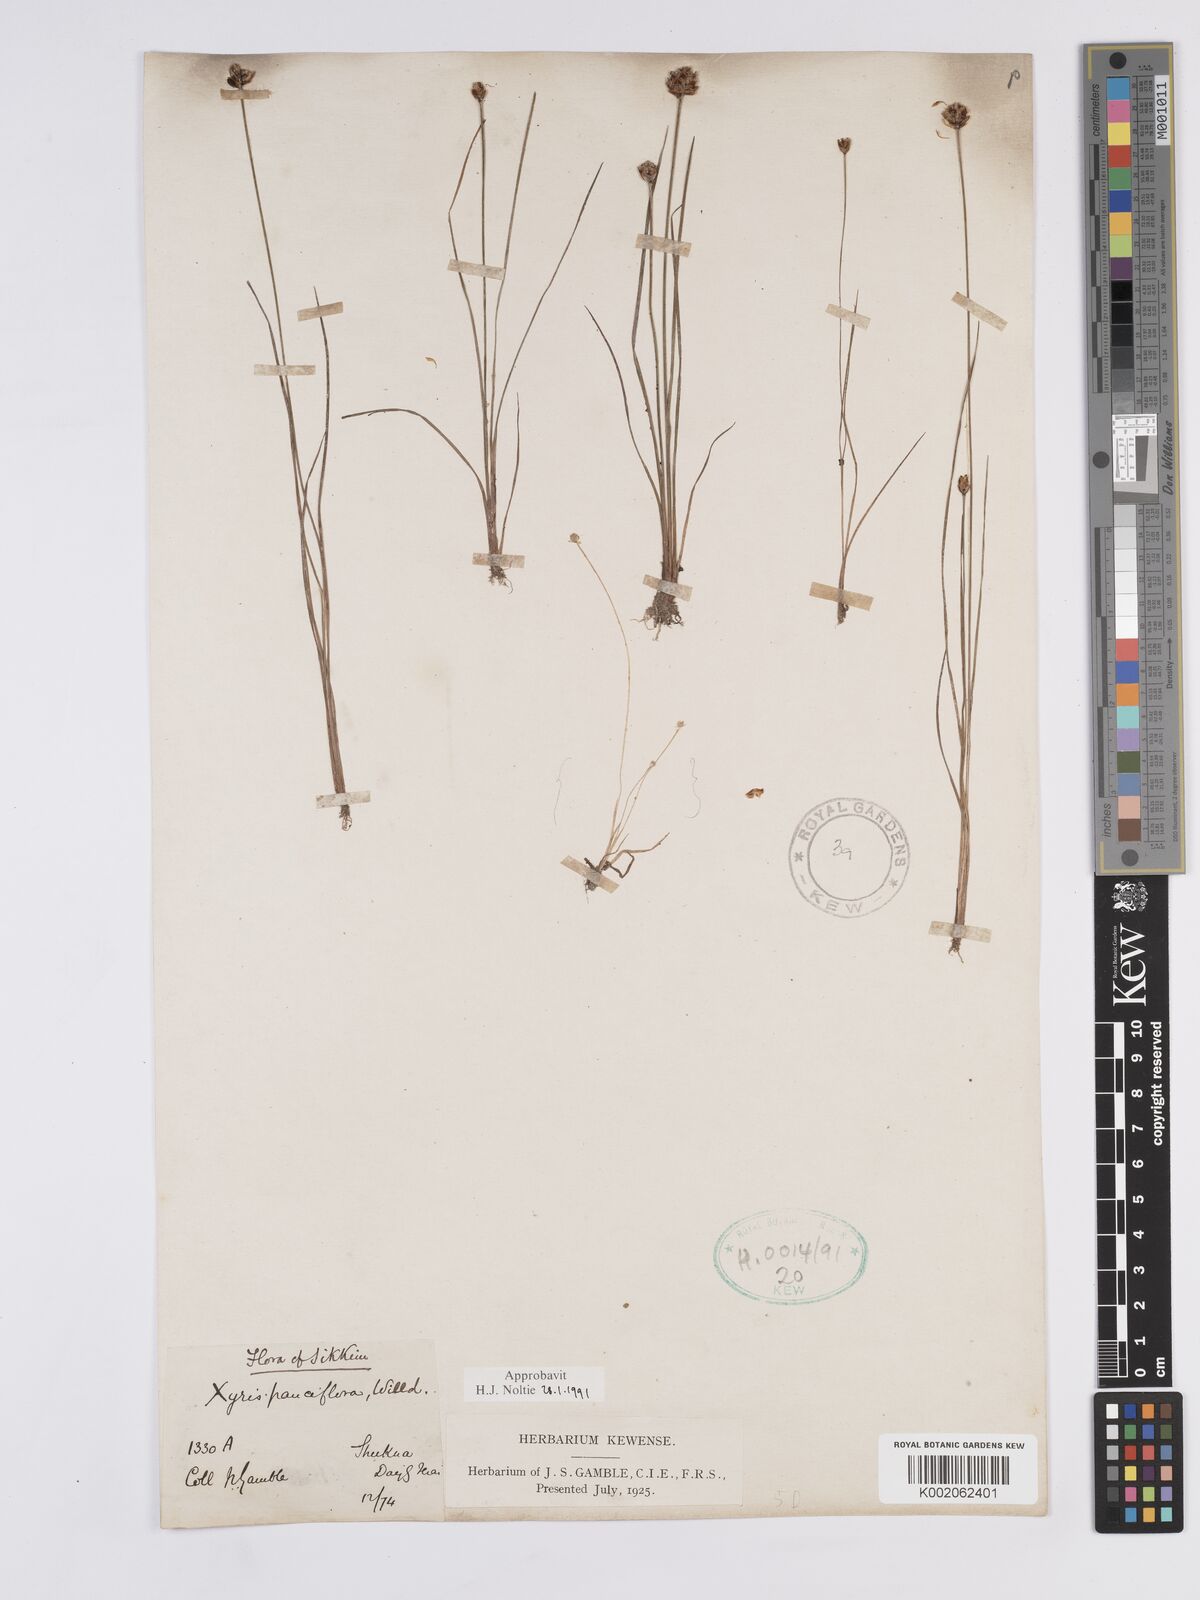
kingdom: Plantae
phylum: Tracheophyta
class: Liliopsida
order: Poales
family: Xyridaceae
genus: Xyris
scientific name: Xyris pauciflora
